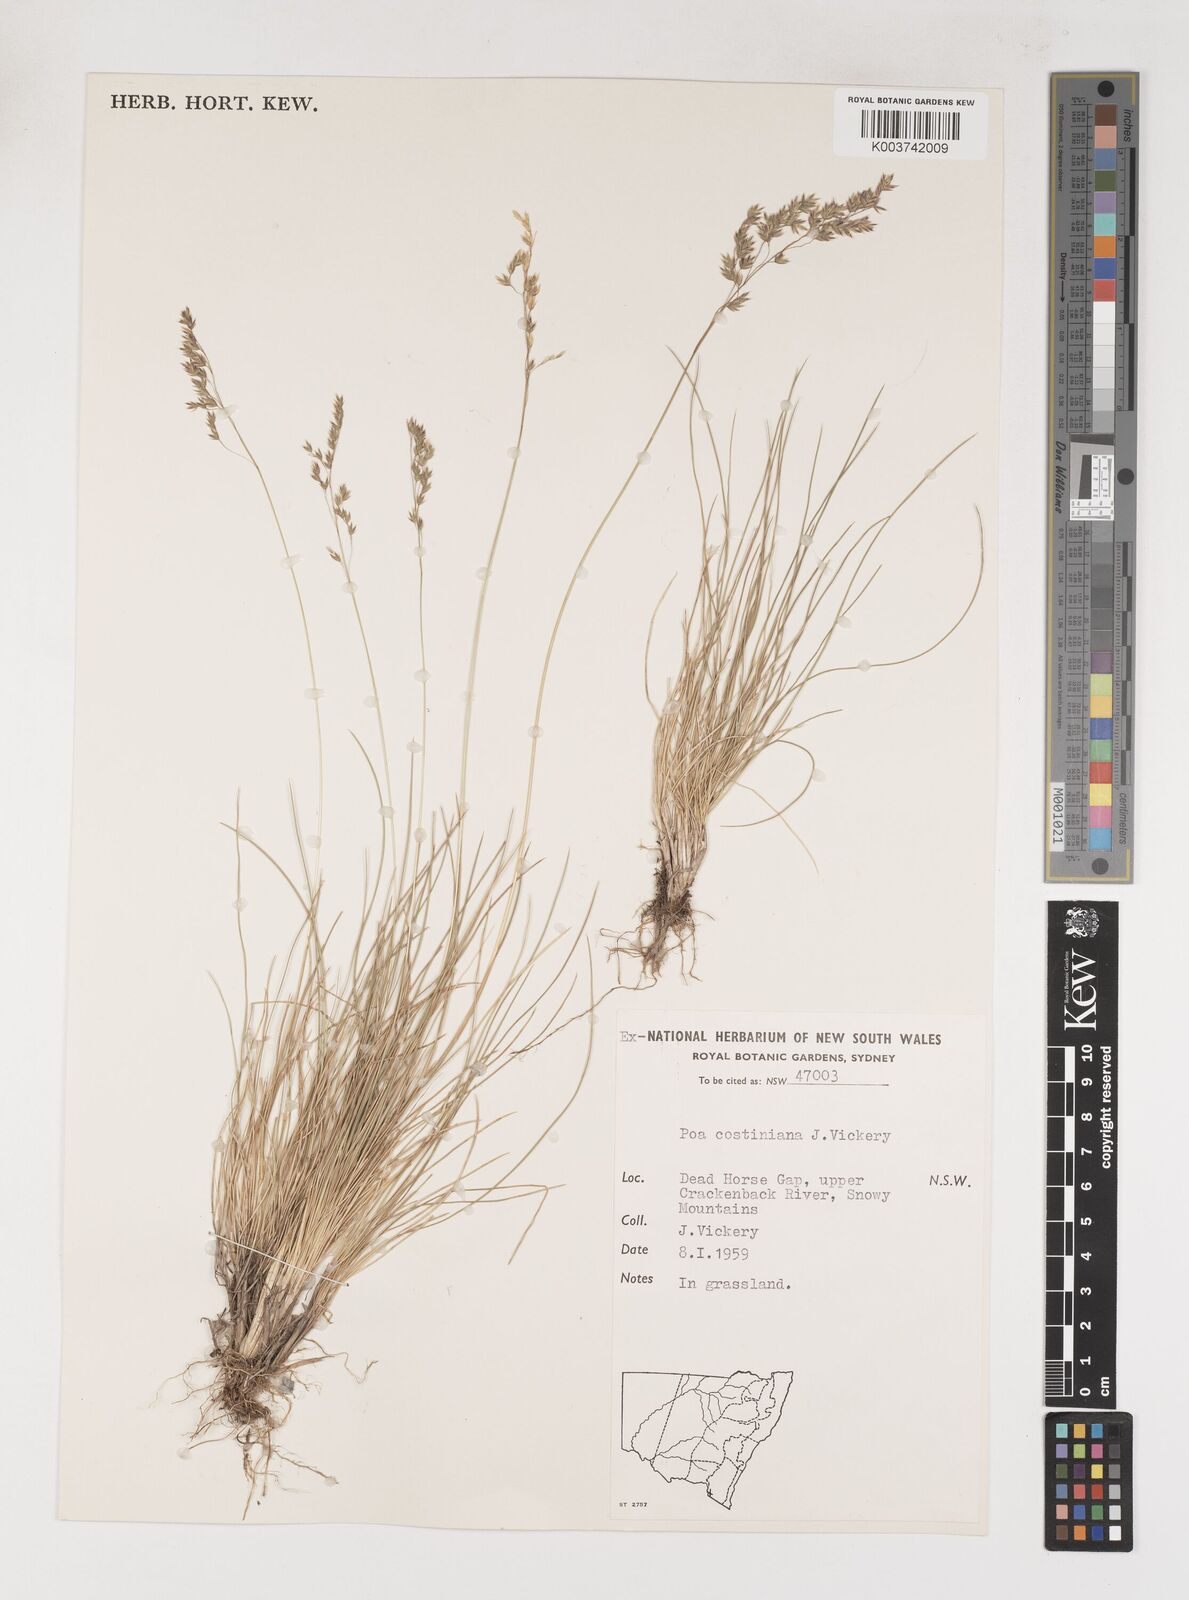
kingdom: Plantae
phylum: Tracheophyta
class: Liliopsida
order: Poales
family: Poaceae
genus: Poa
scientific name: Poa costiniana
